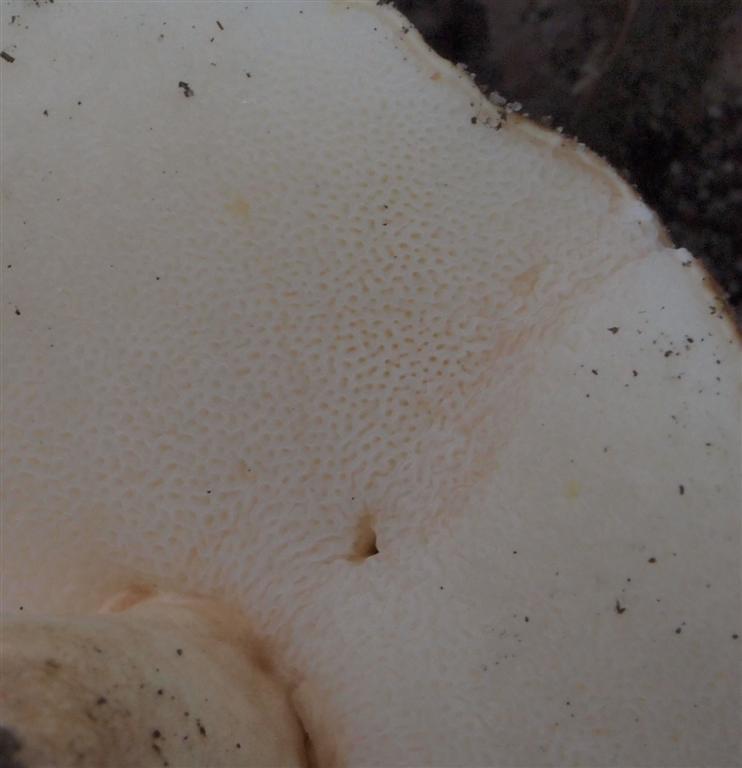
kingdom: Fungi
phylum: Basidiomycota
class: Agaricomycetes
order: Boletales
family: Gyroporaceae
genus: Gyroporus
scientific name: Gyroporus castaneus
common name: kastanie-kammerrørhat
